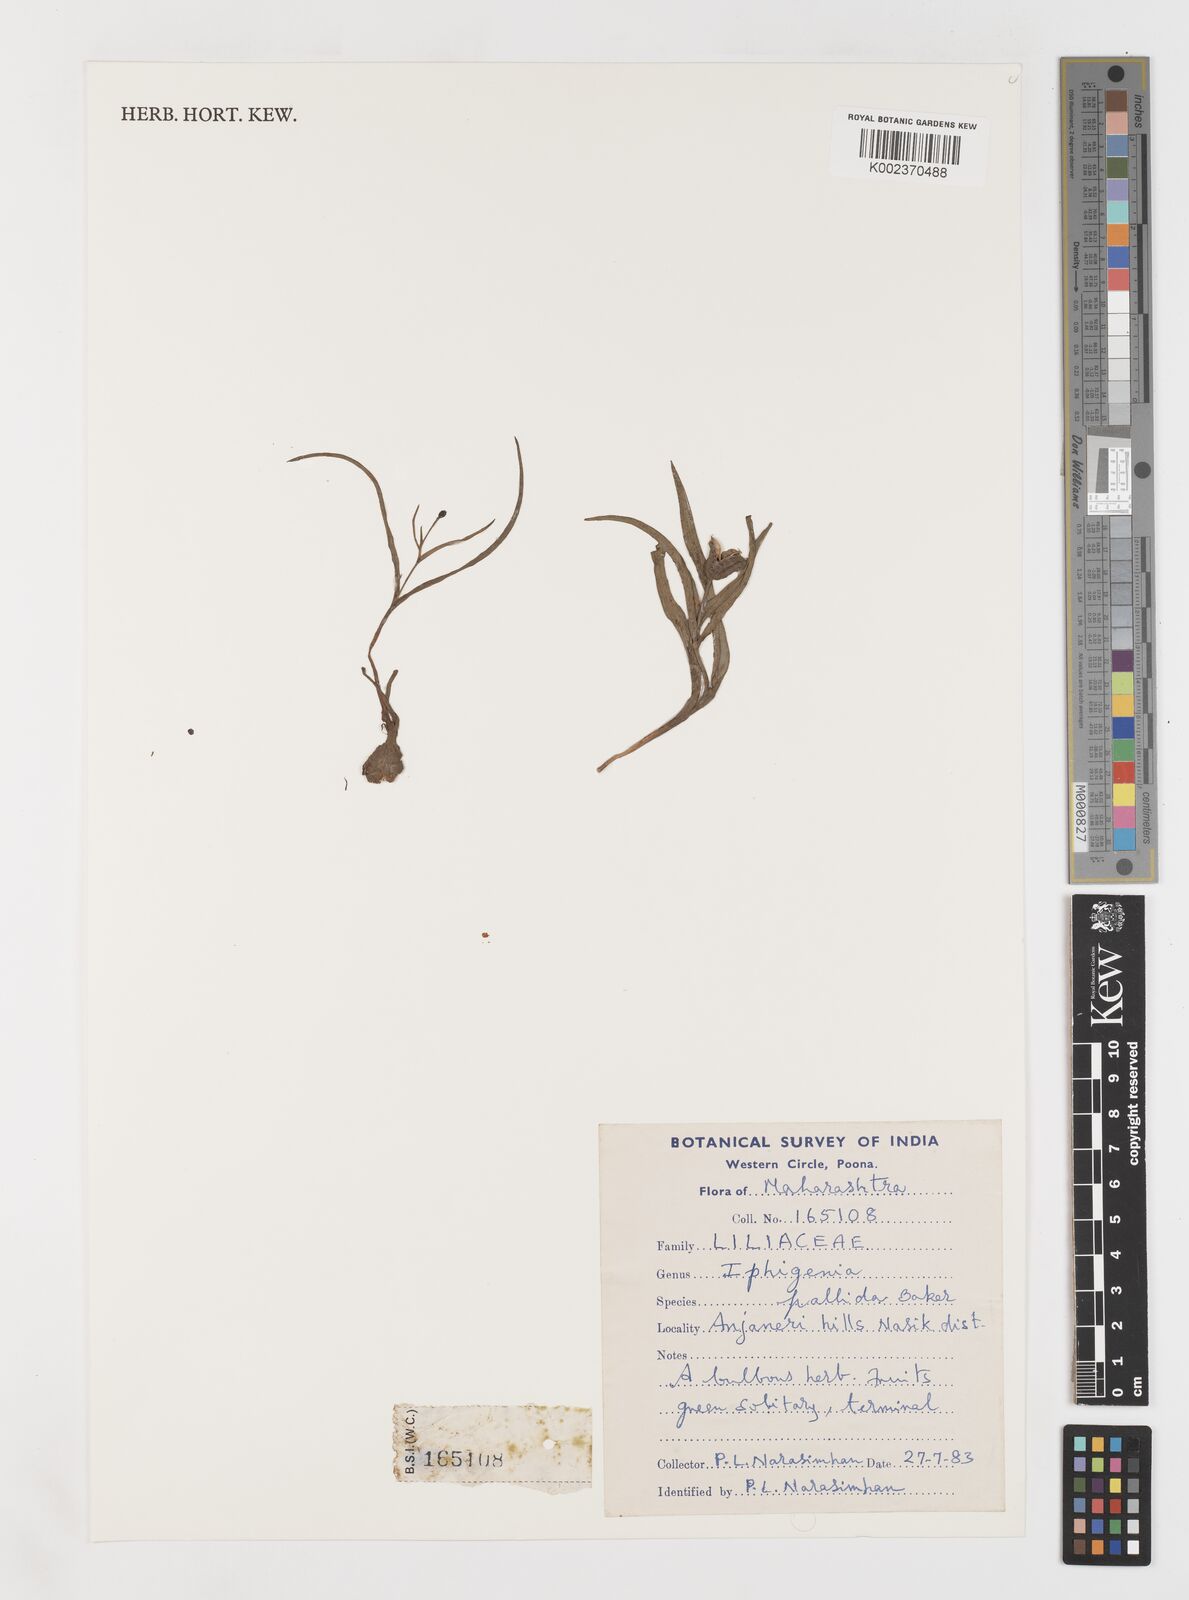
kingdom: Plantae
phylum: Tracheophyta
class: Liliopsida
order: Liliales
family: Colchicaceae
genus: Iphigenia
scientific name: Iphigenia pallida
